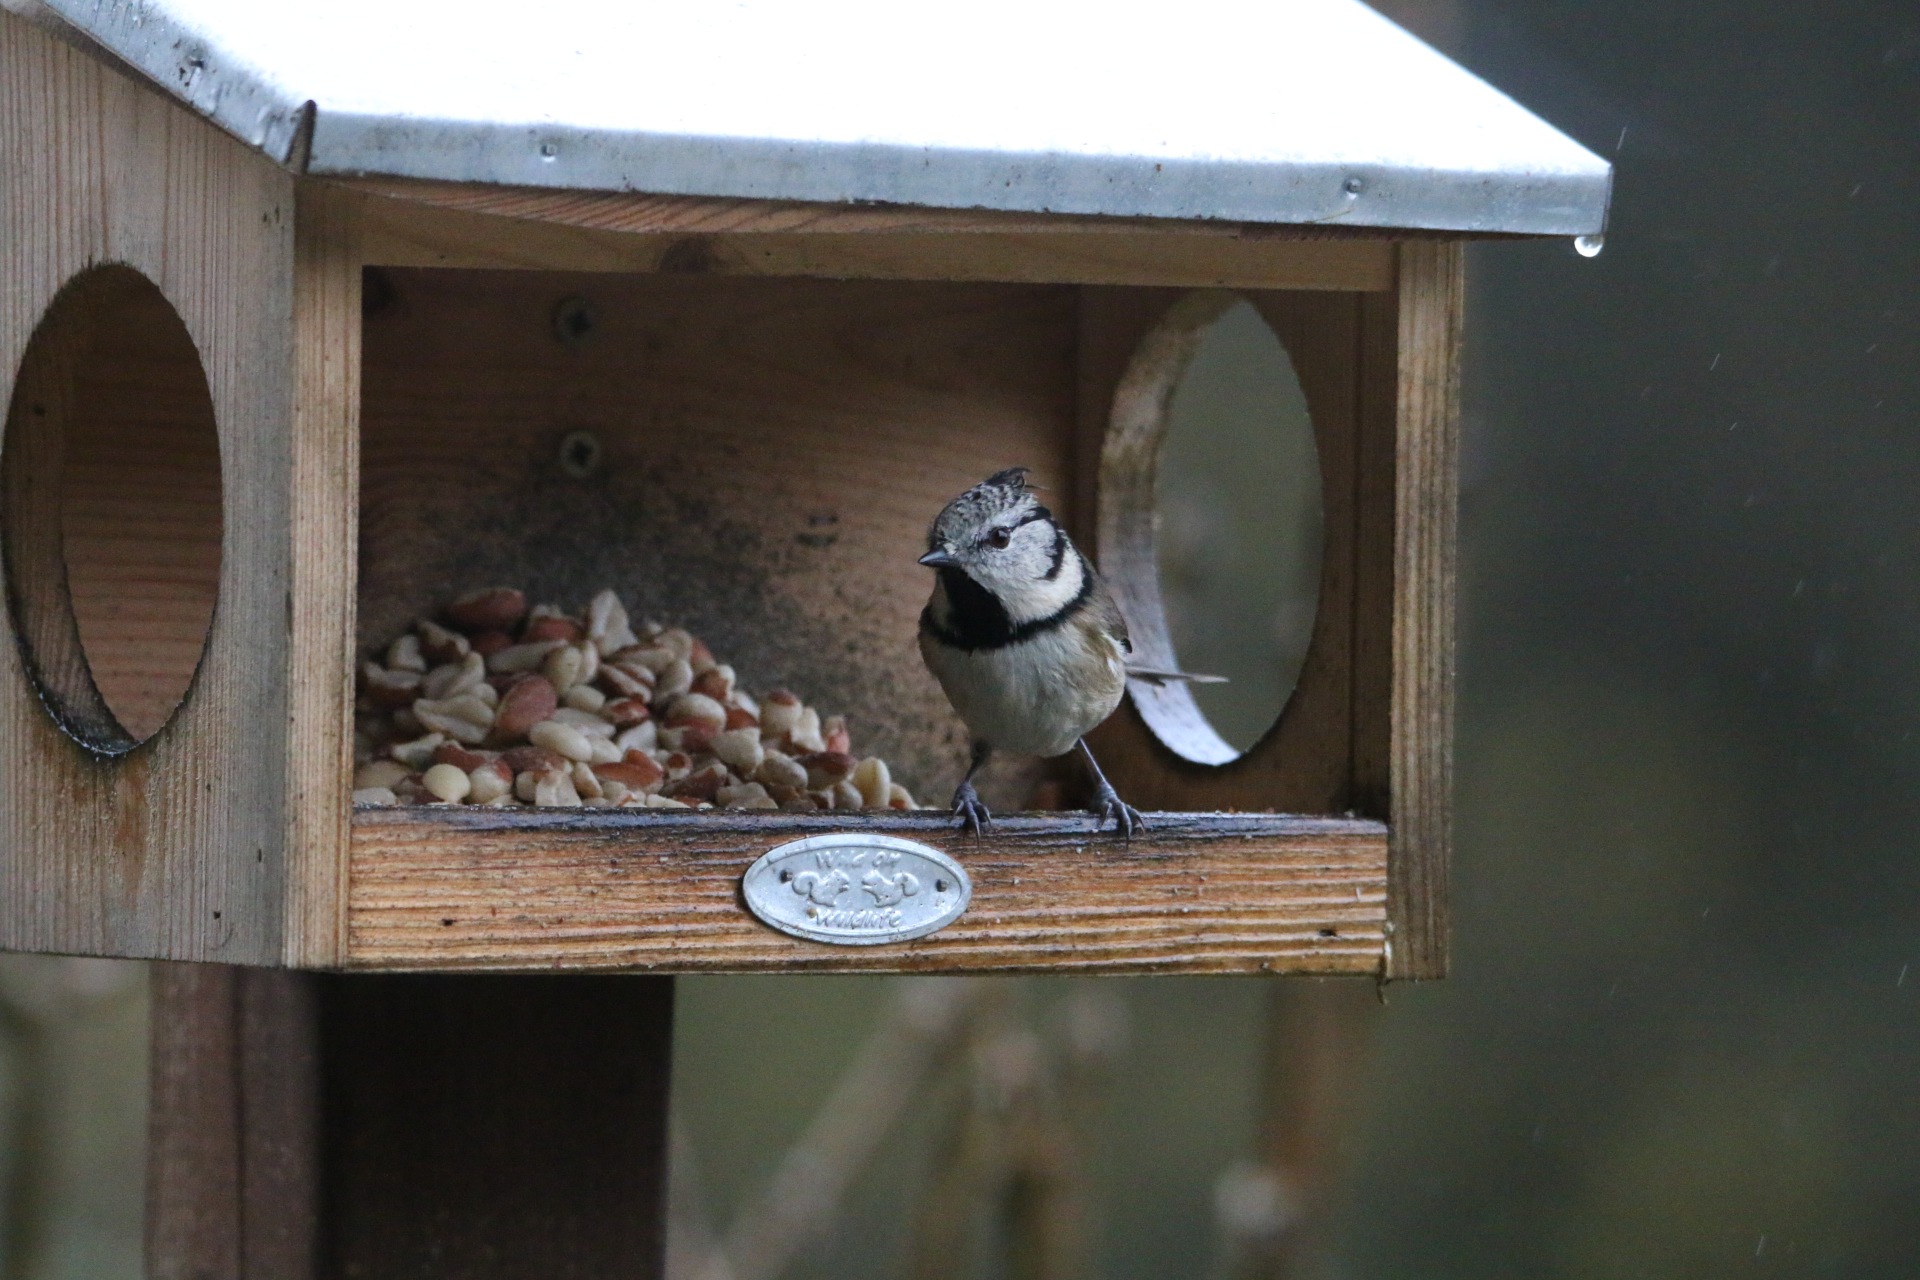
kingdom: Animalia
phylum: Chordata
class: Aves
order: Passeriformes
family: Paridae
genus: Lophophanes
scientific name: Lophophanes cristatus
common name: Topmejse
